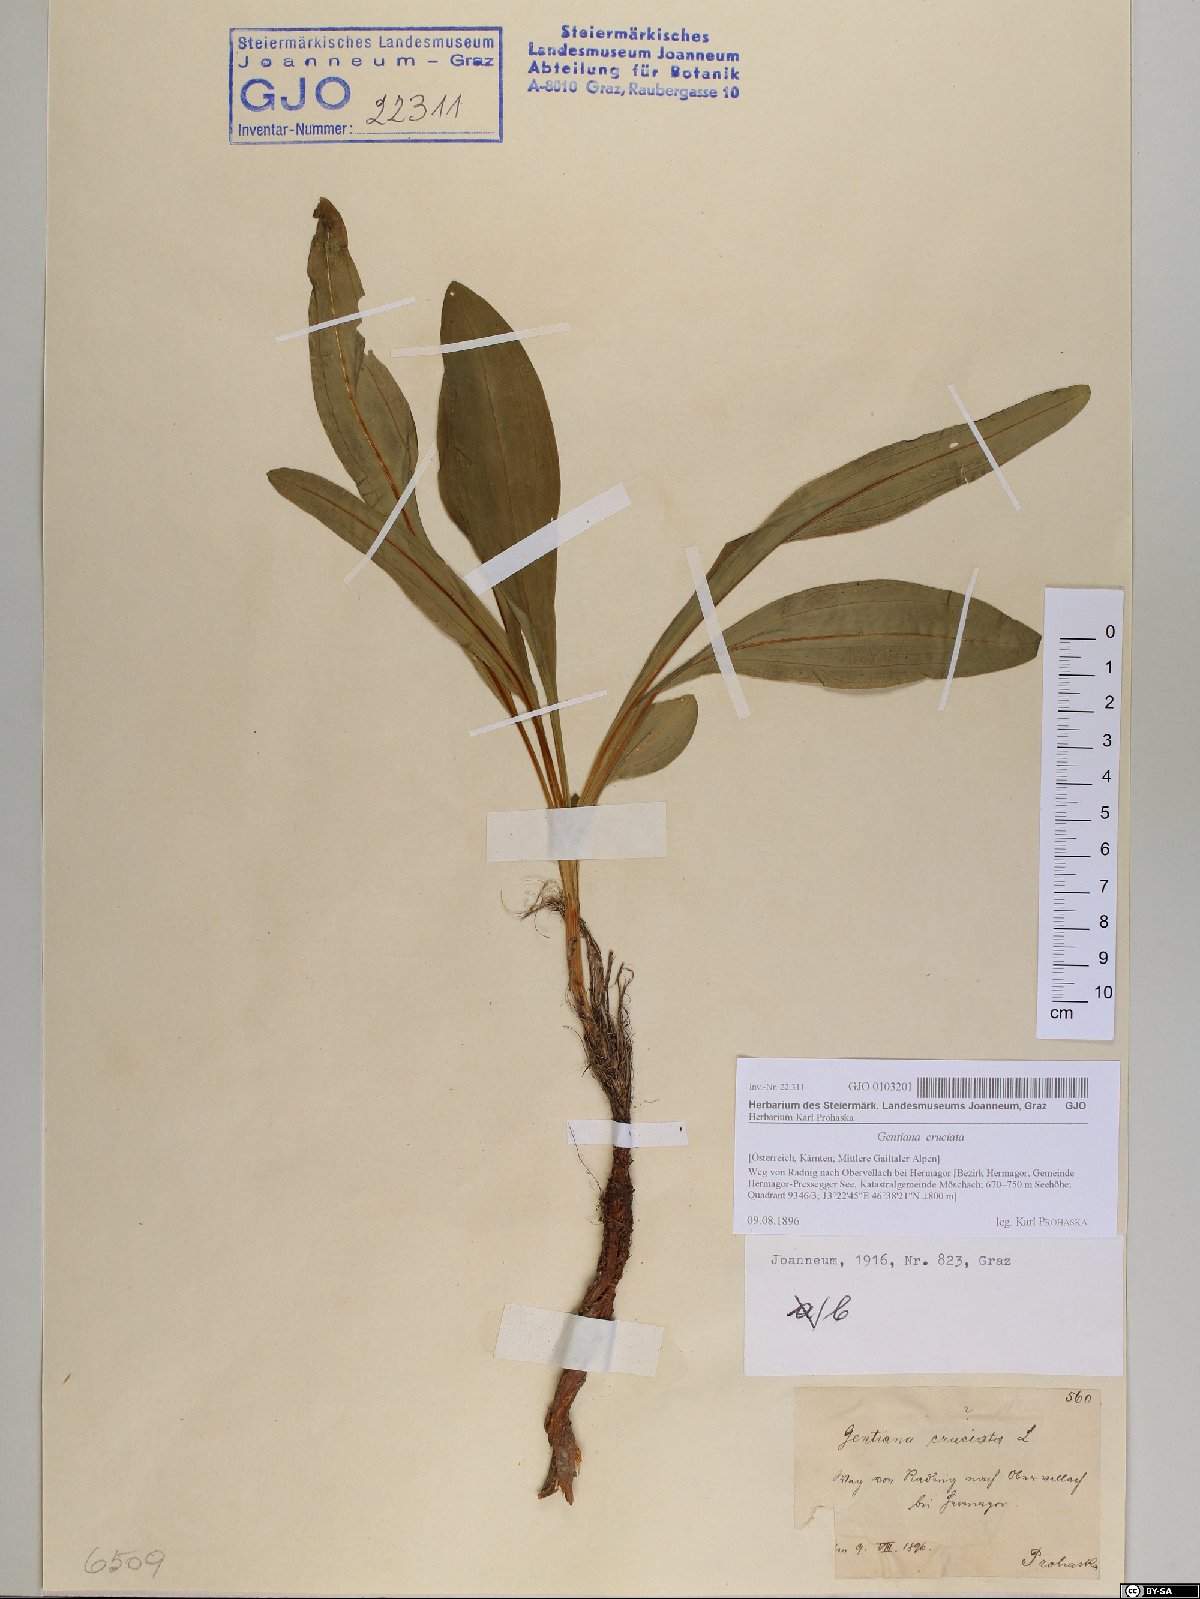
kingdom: Plantae
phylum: Tracheophyta
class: Magnoliopsida
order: Gentianales
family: Gentianaceae
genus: Gentiana
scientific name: Gentiana cruciata
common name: Cross gentian
